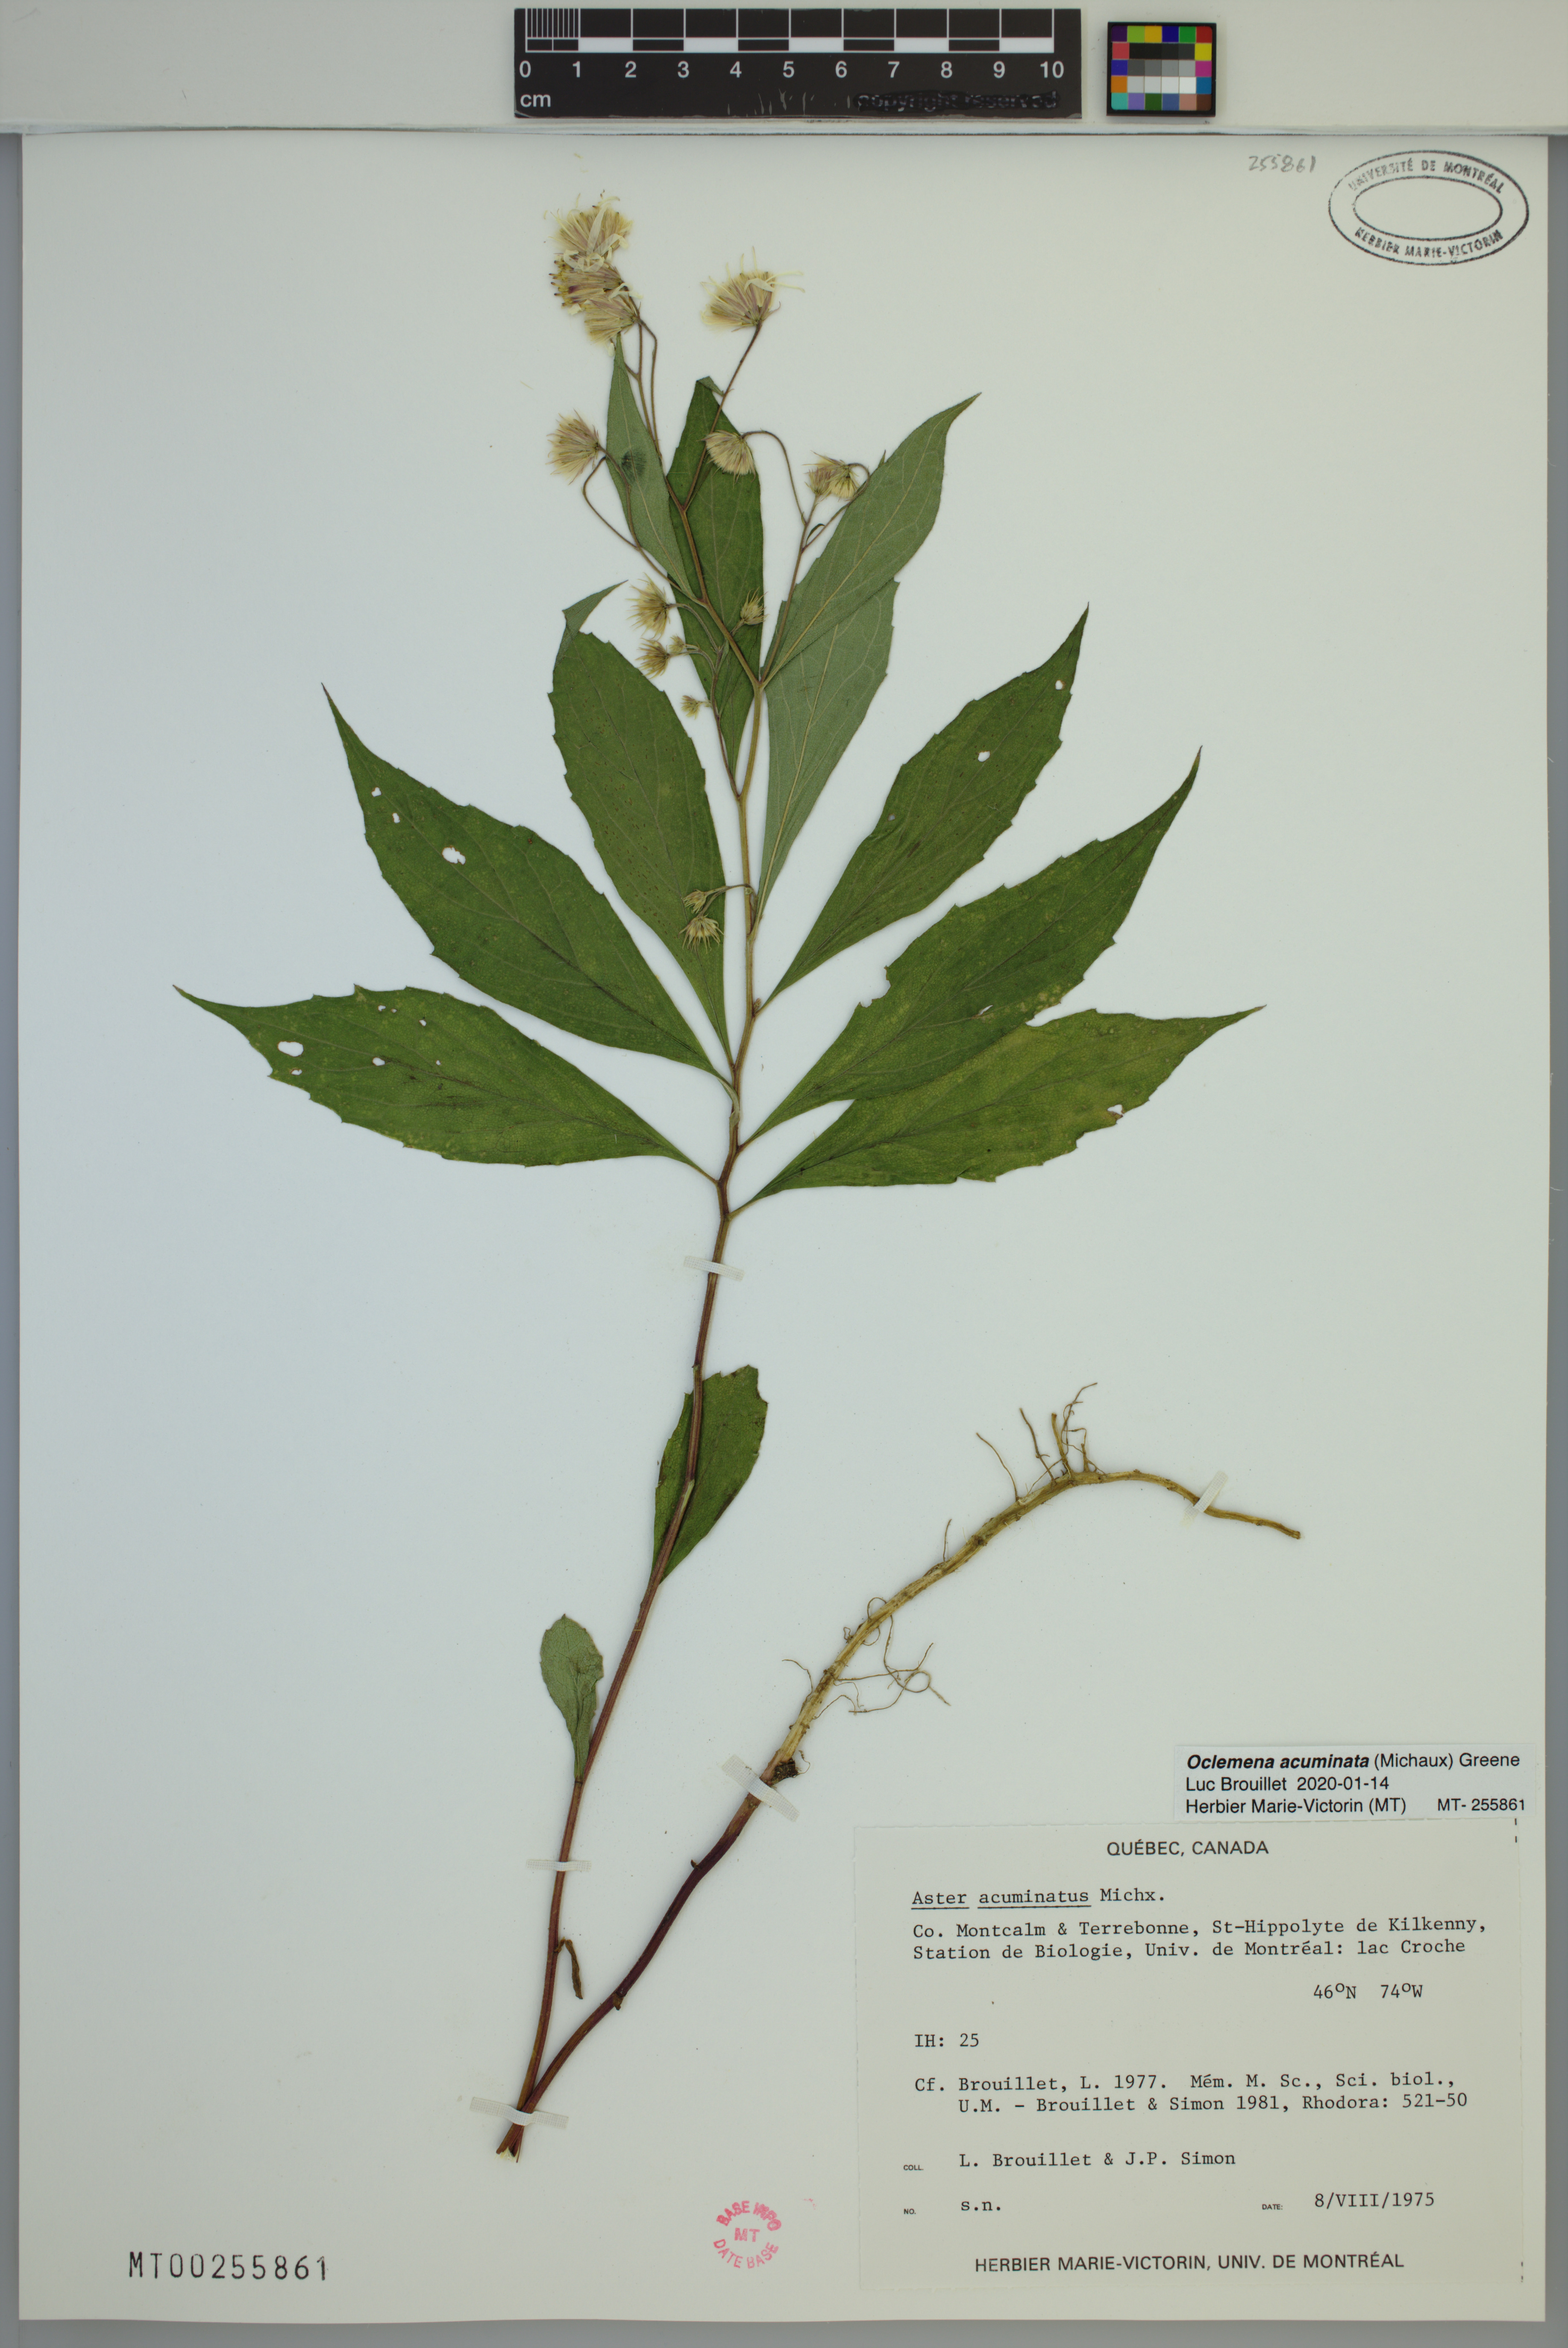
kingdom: Plantae
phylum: Tracheophyta
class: Magnoliopsida
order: Asterales
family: Asteraceae
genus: Oclemena
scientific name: Oclemena acuminata
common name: Mountain aster
